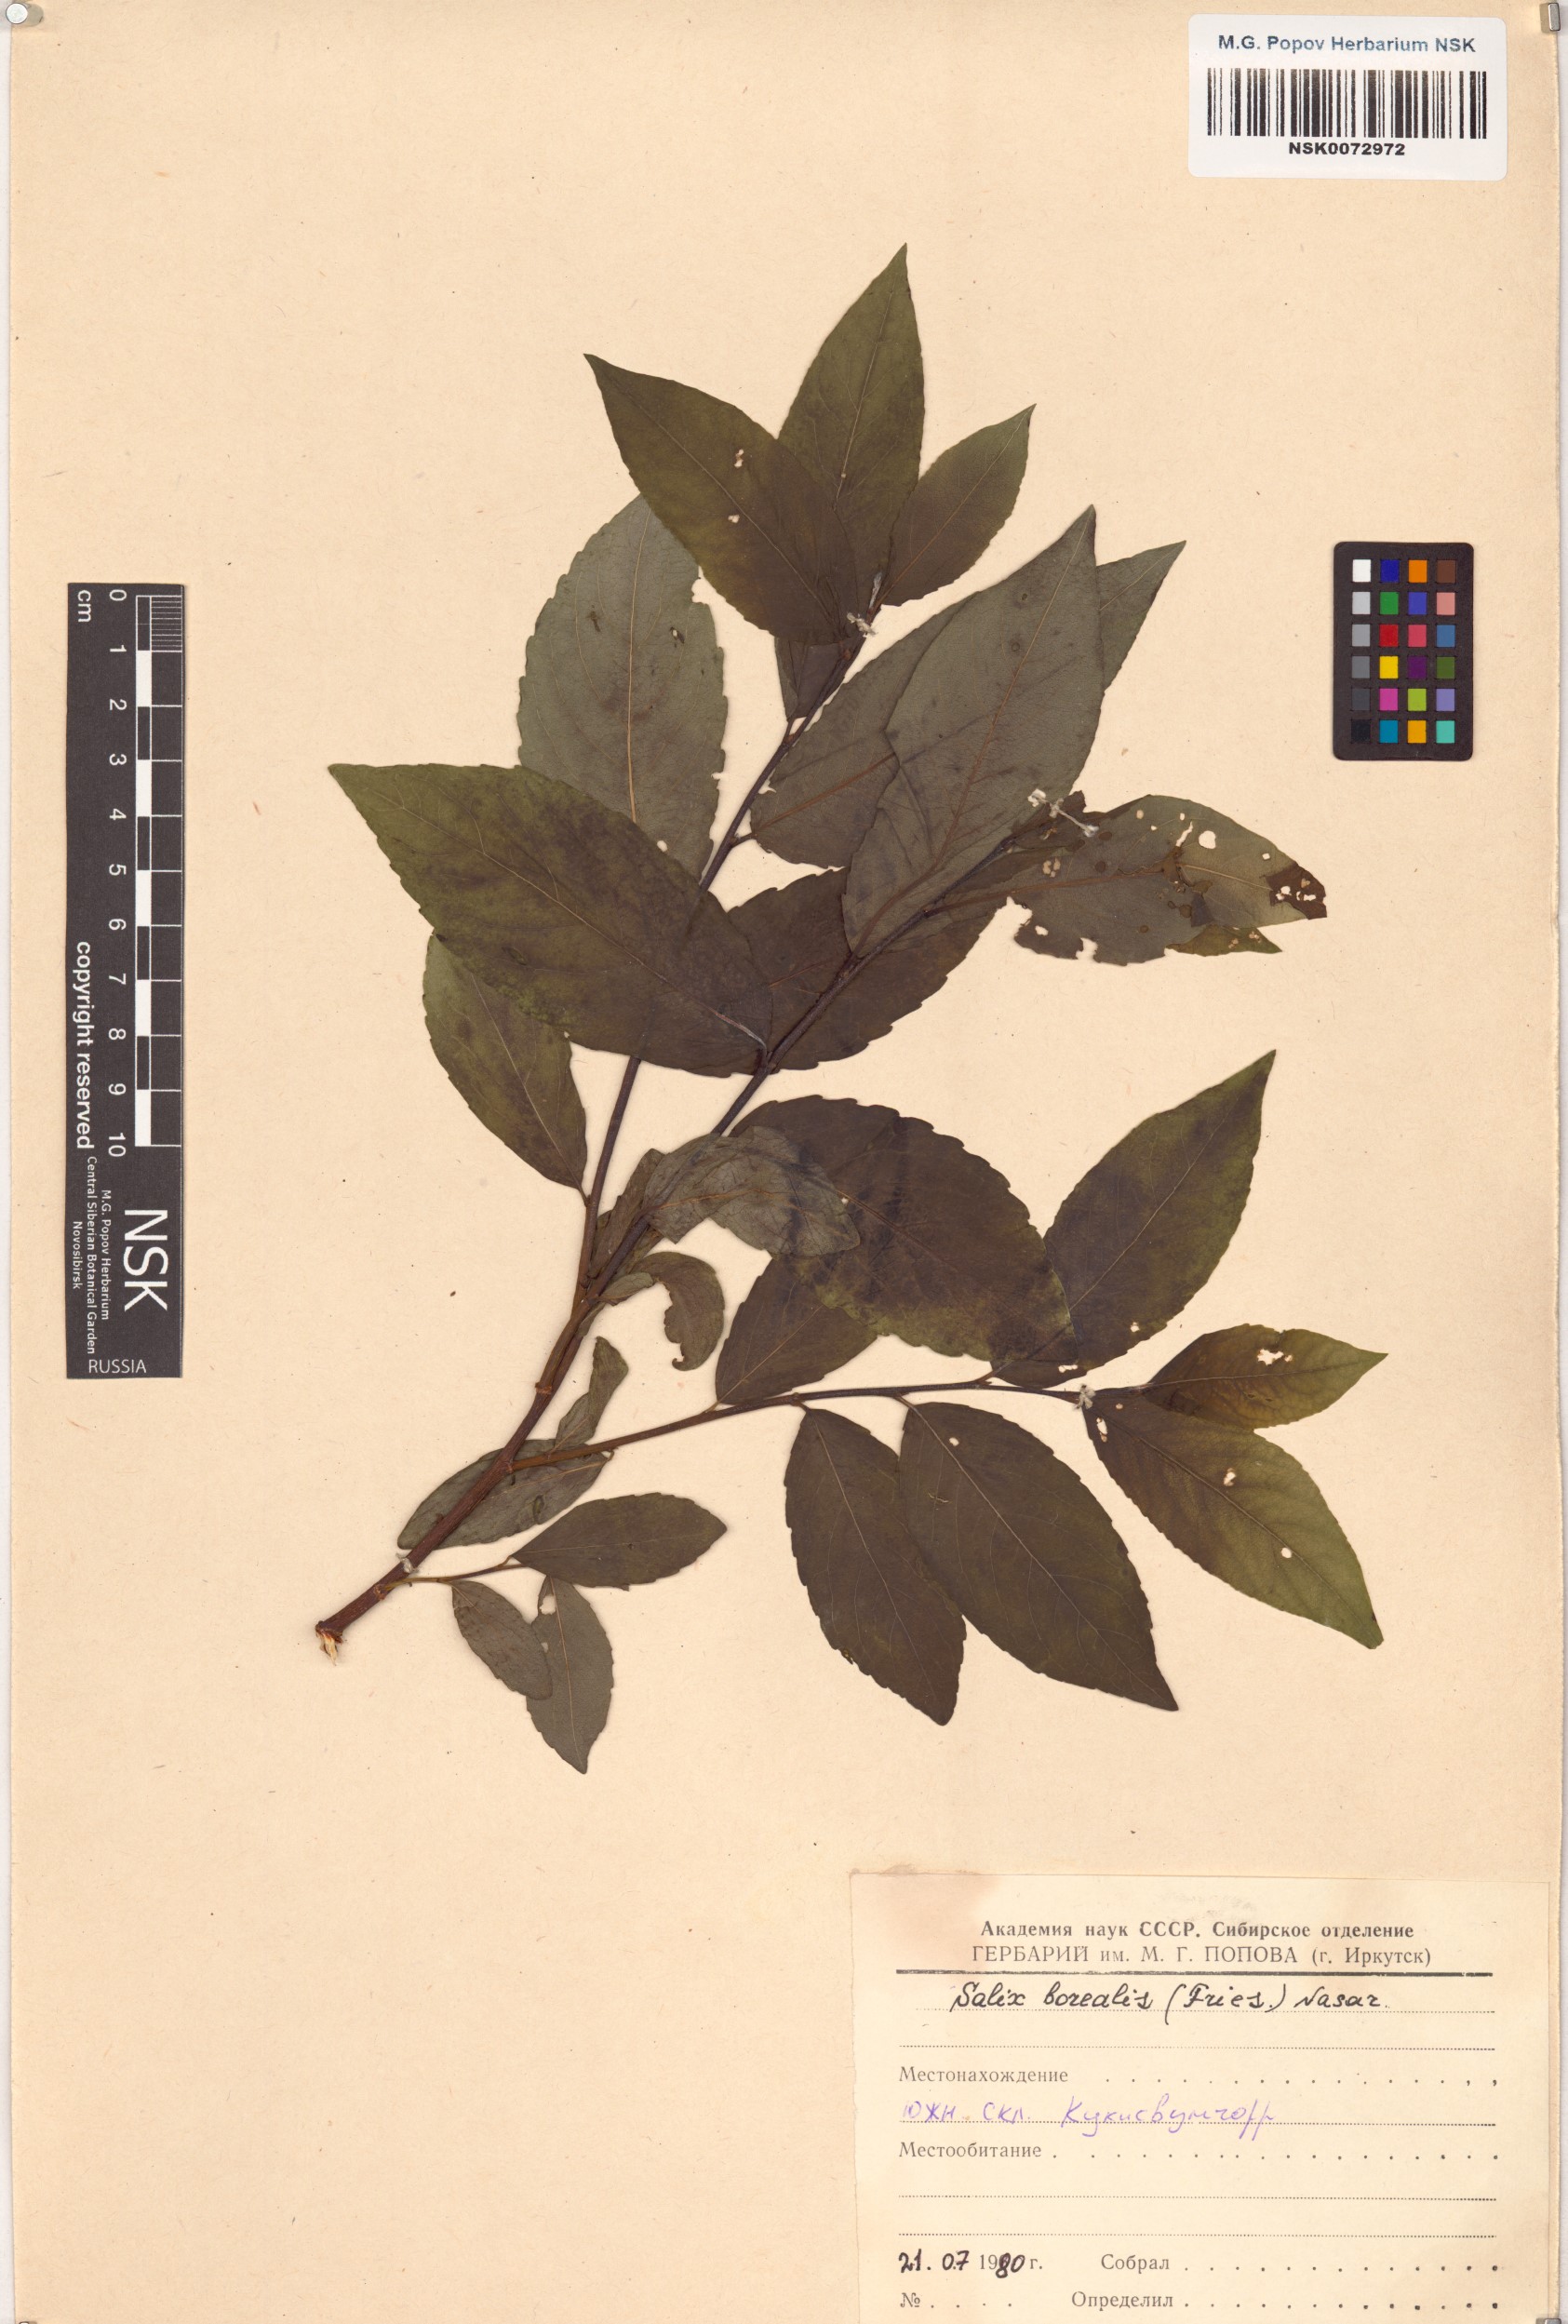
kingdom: Plantae
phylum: Tracheophyta
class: Magnoliopsida
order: Malpighiales
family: Salicaceae
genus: Salix
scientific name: Salix myrsinifolia
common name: Dark-leaved willow
